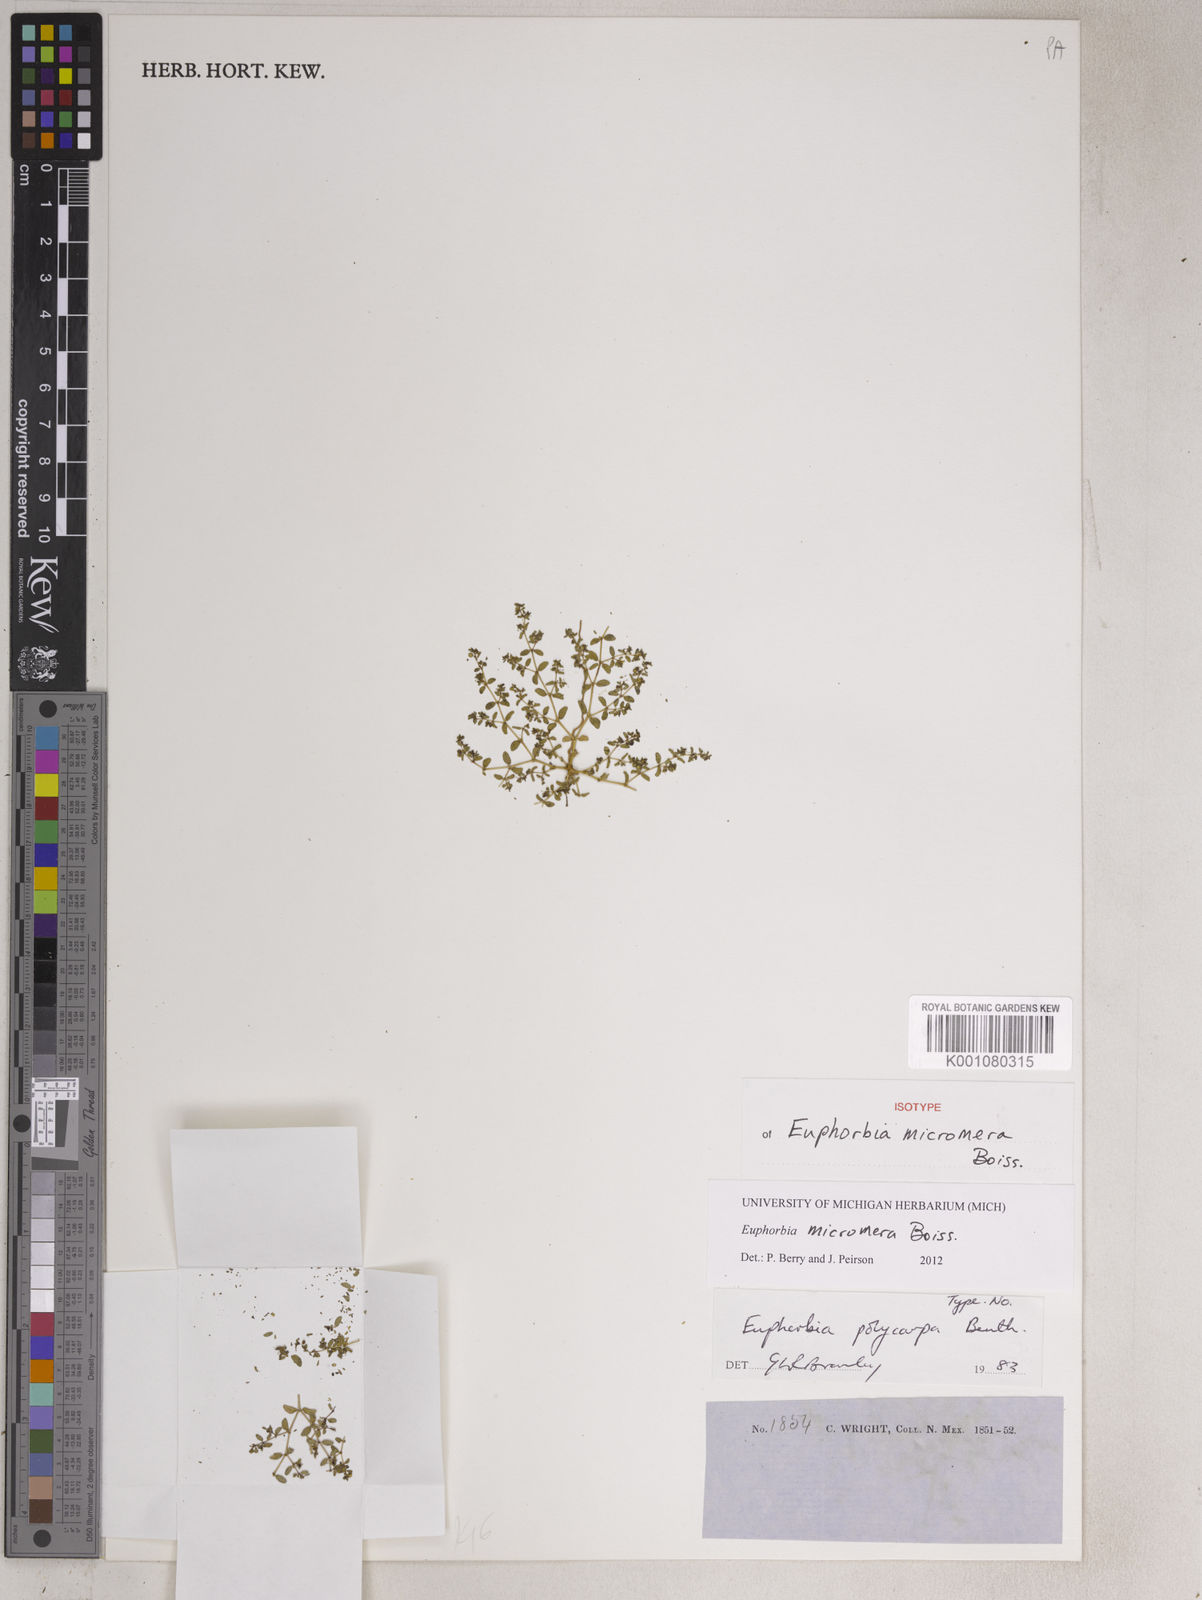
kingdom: Plantae
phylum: Tracheophyta
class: Magnoliopsida
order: Malpighiales
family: Euphorbiaceae
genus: Euphorbia
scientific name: Euphorbia micromera
